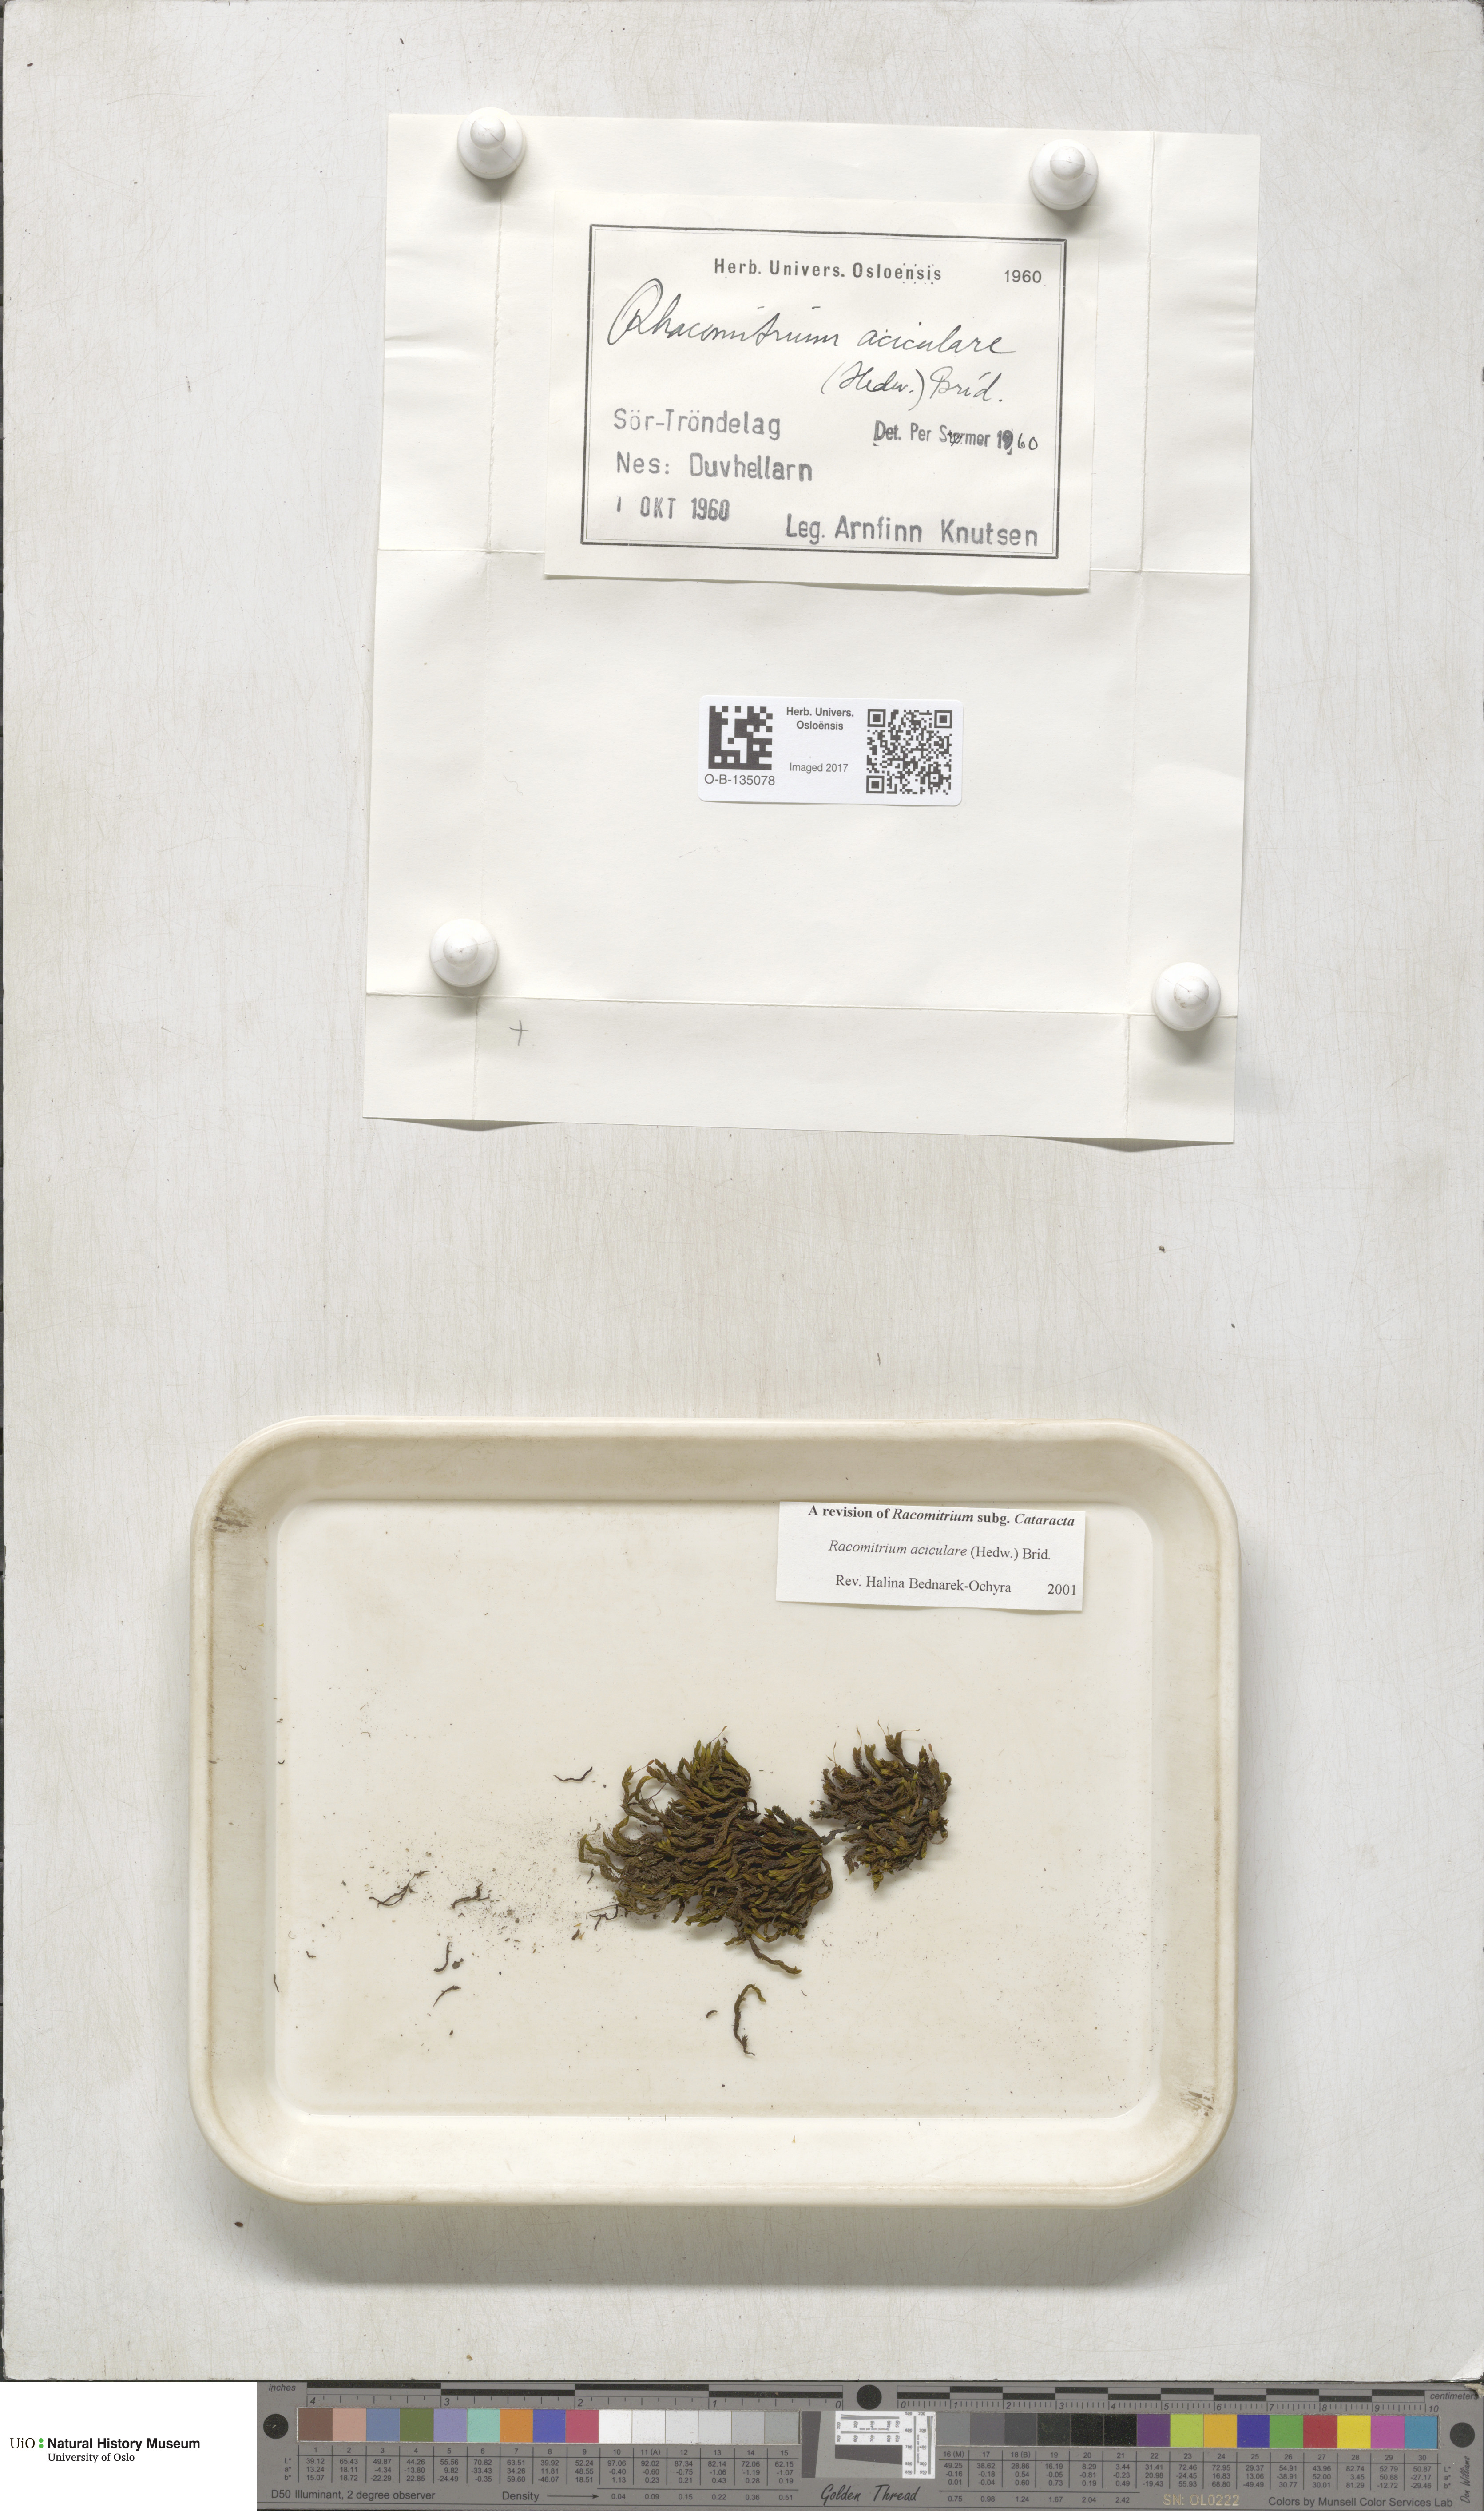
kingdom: Plantae
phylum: Bryophyta
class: Bryopsida
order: Grimmiales
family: Grimmiaceae
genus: Codriophorus
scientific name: Codriophorus acicularis
